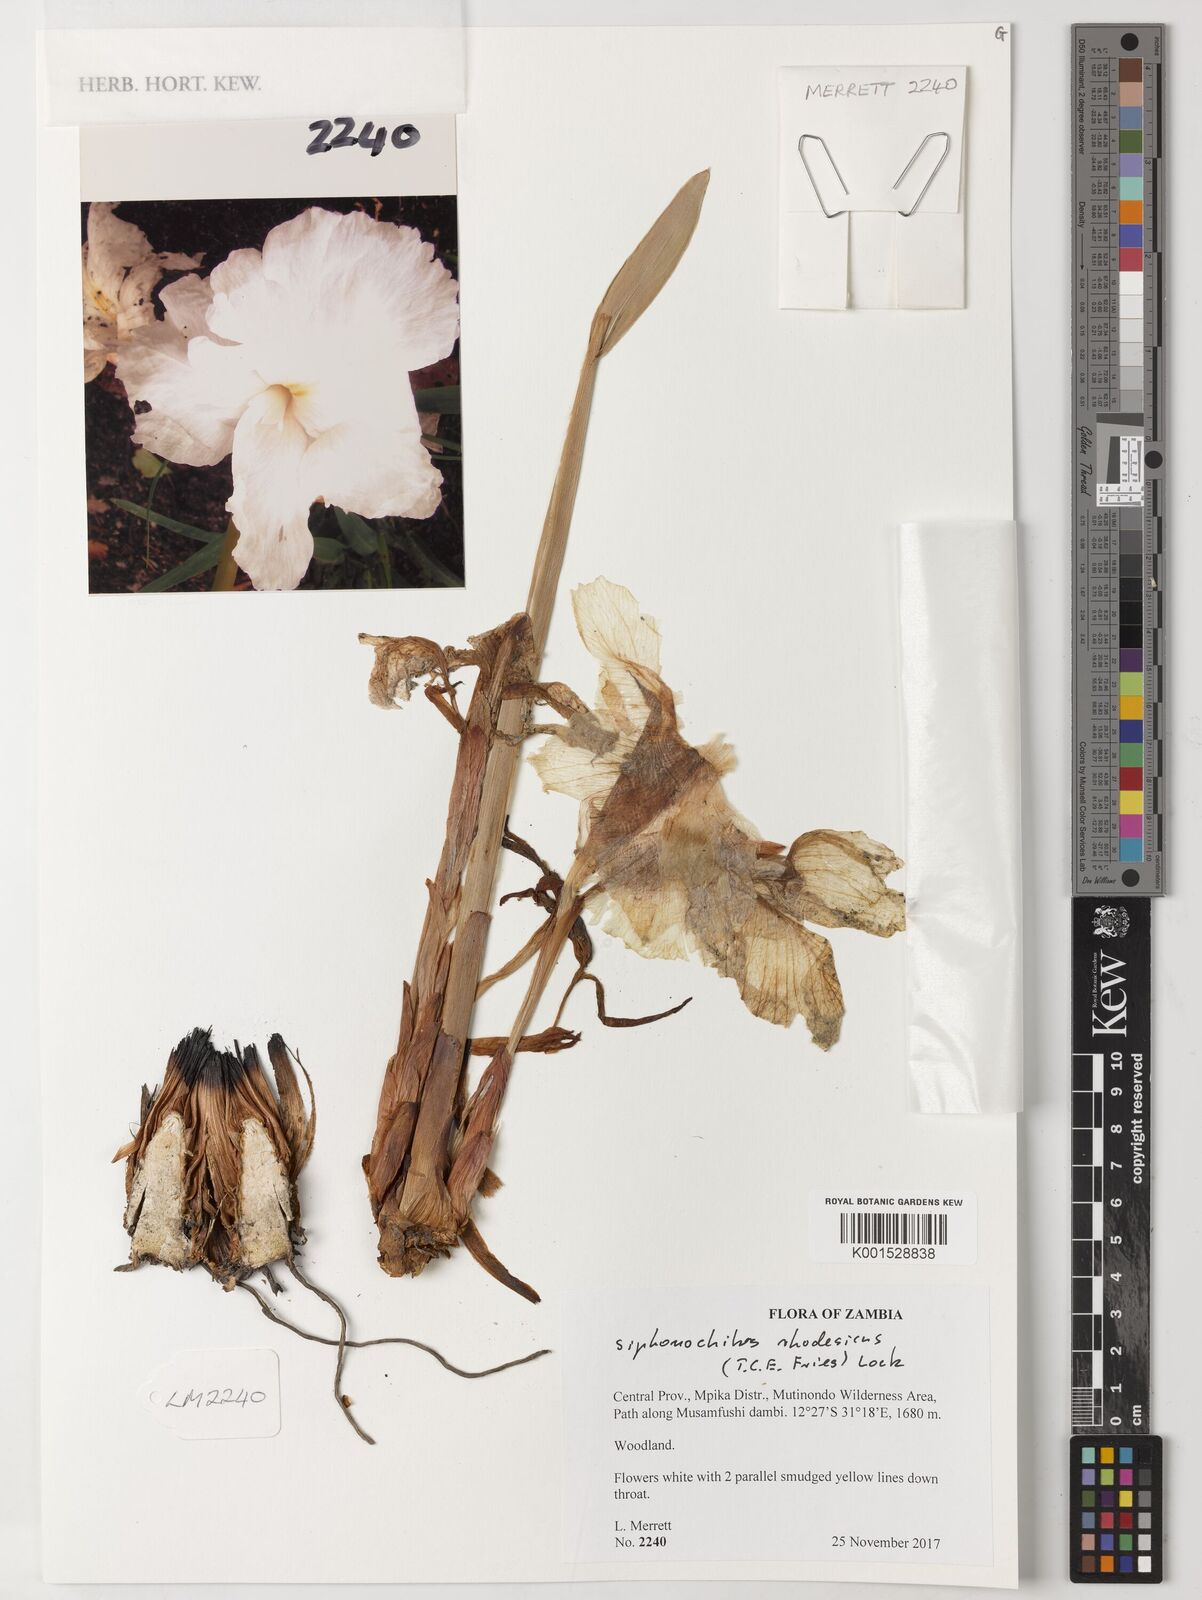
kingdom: Plantae
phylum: Tracheophyta
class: Liliopsida
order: Zingiberales
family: Zingiberaceae
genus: Siphonochilus
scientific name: Siphonochilus rhodesicus
